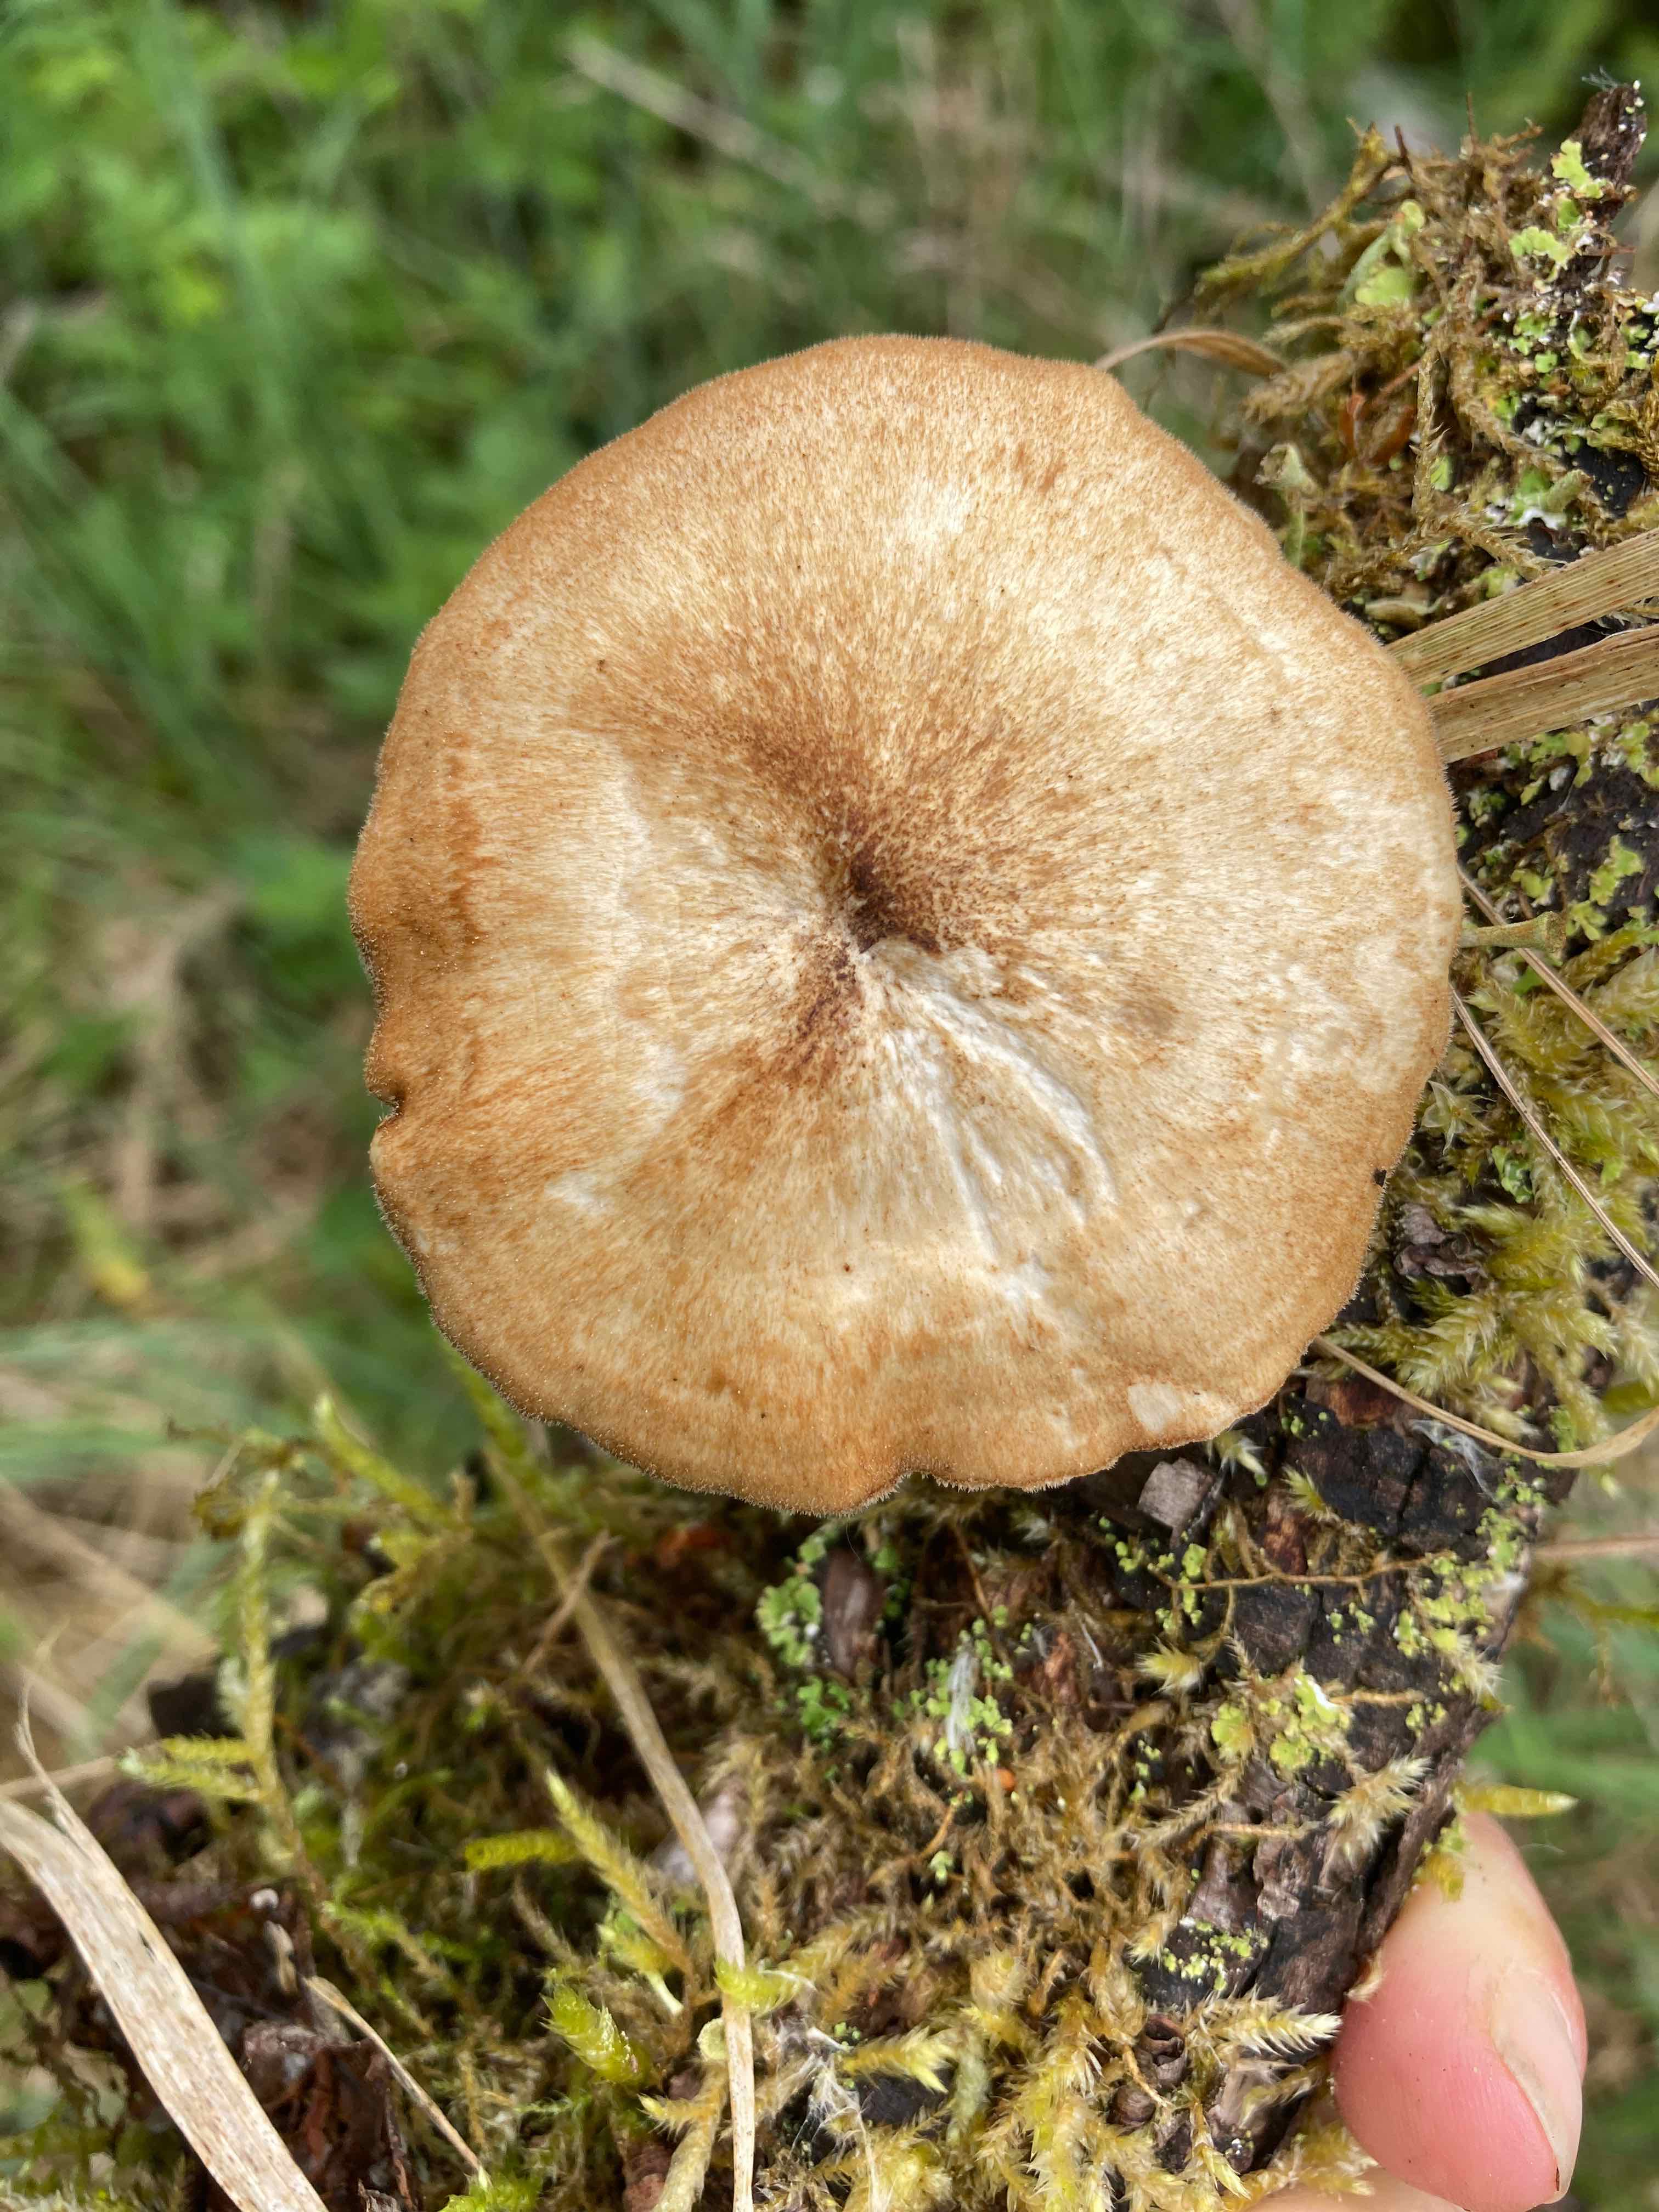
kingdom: Fungi
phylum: Basidiomycota
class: Agaricomycetes
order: Polyporales
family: Polyporaceae
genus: Lentinus
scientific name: Lentinus substrictus
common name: forårs-stilkporesvamp
